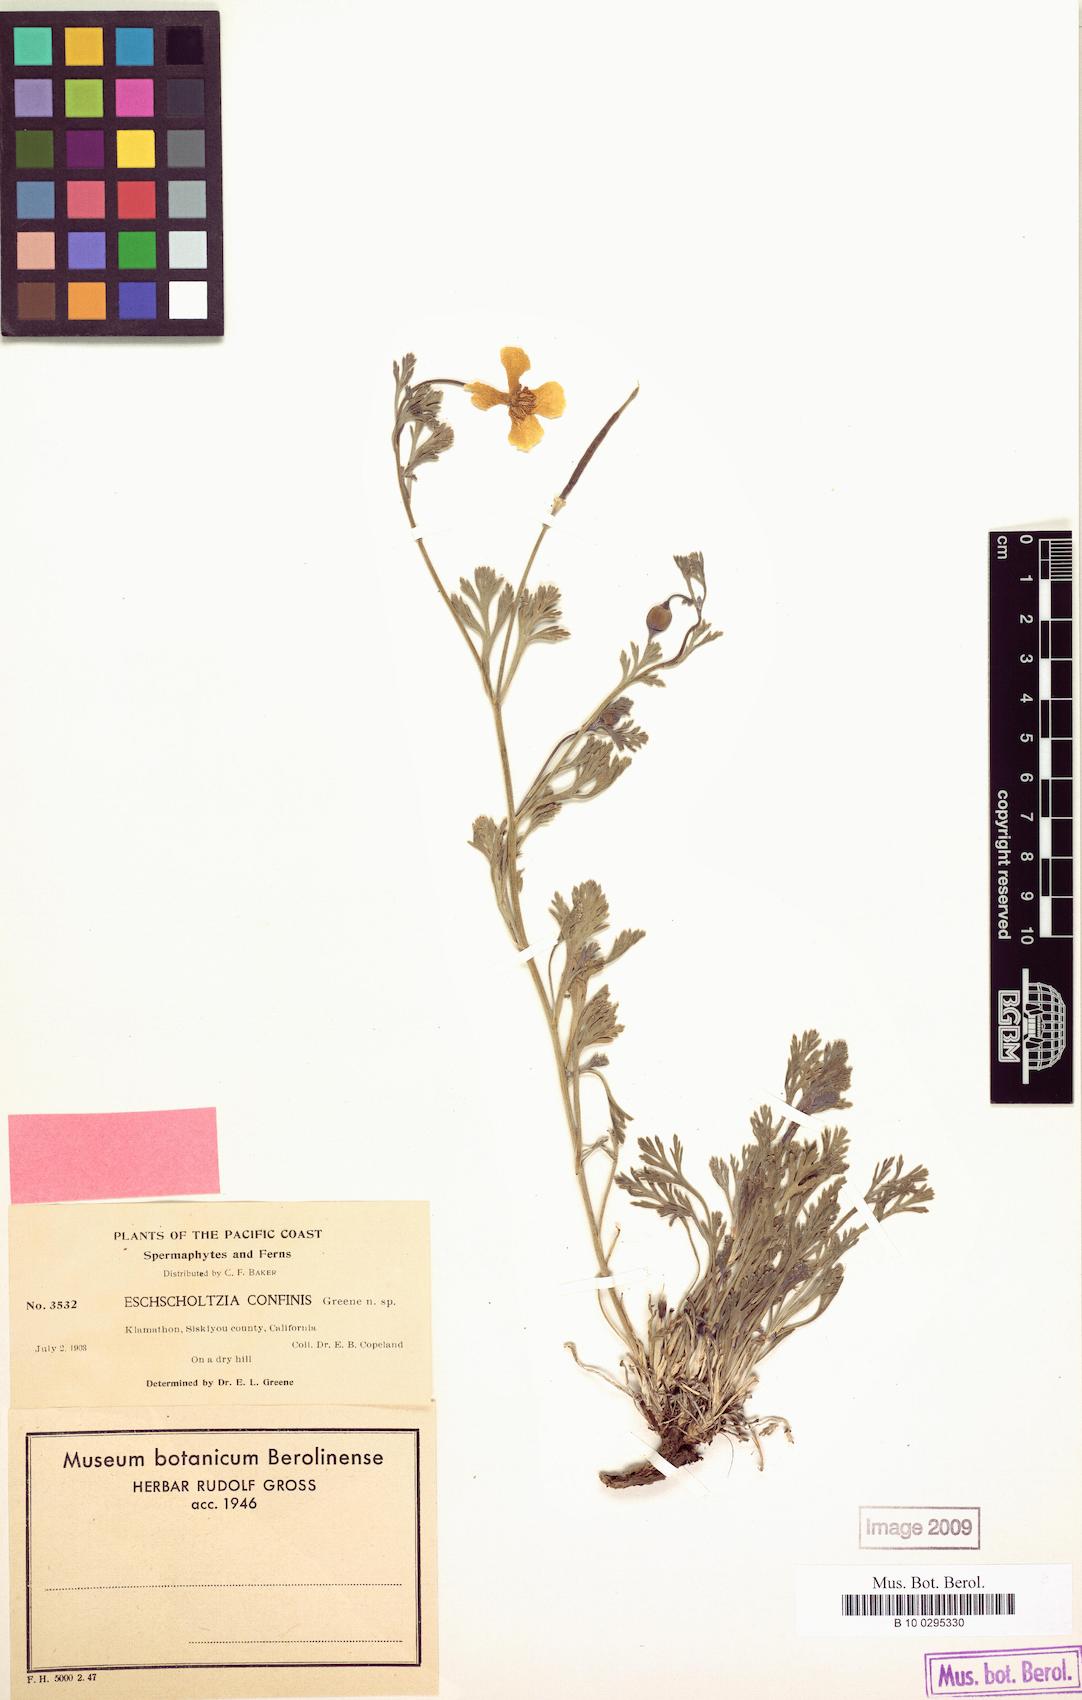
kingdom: Plantae
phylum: Tracheophyta
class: Magnoliopsida
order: Ranunculales
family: Papaveraceae
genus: Eschscholzia
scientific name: Eschscholzia californica
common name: California poppy
